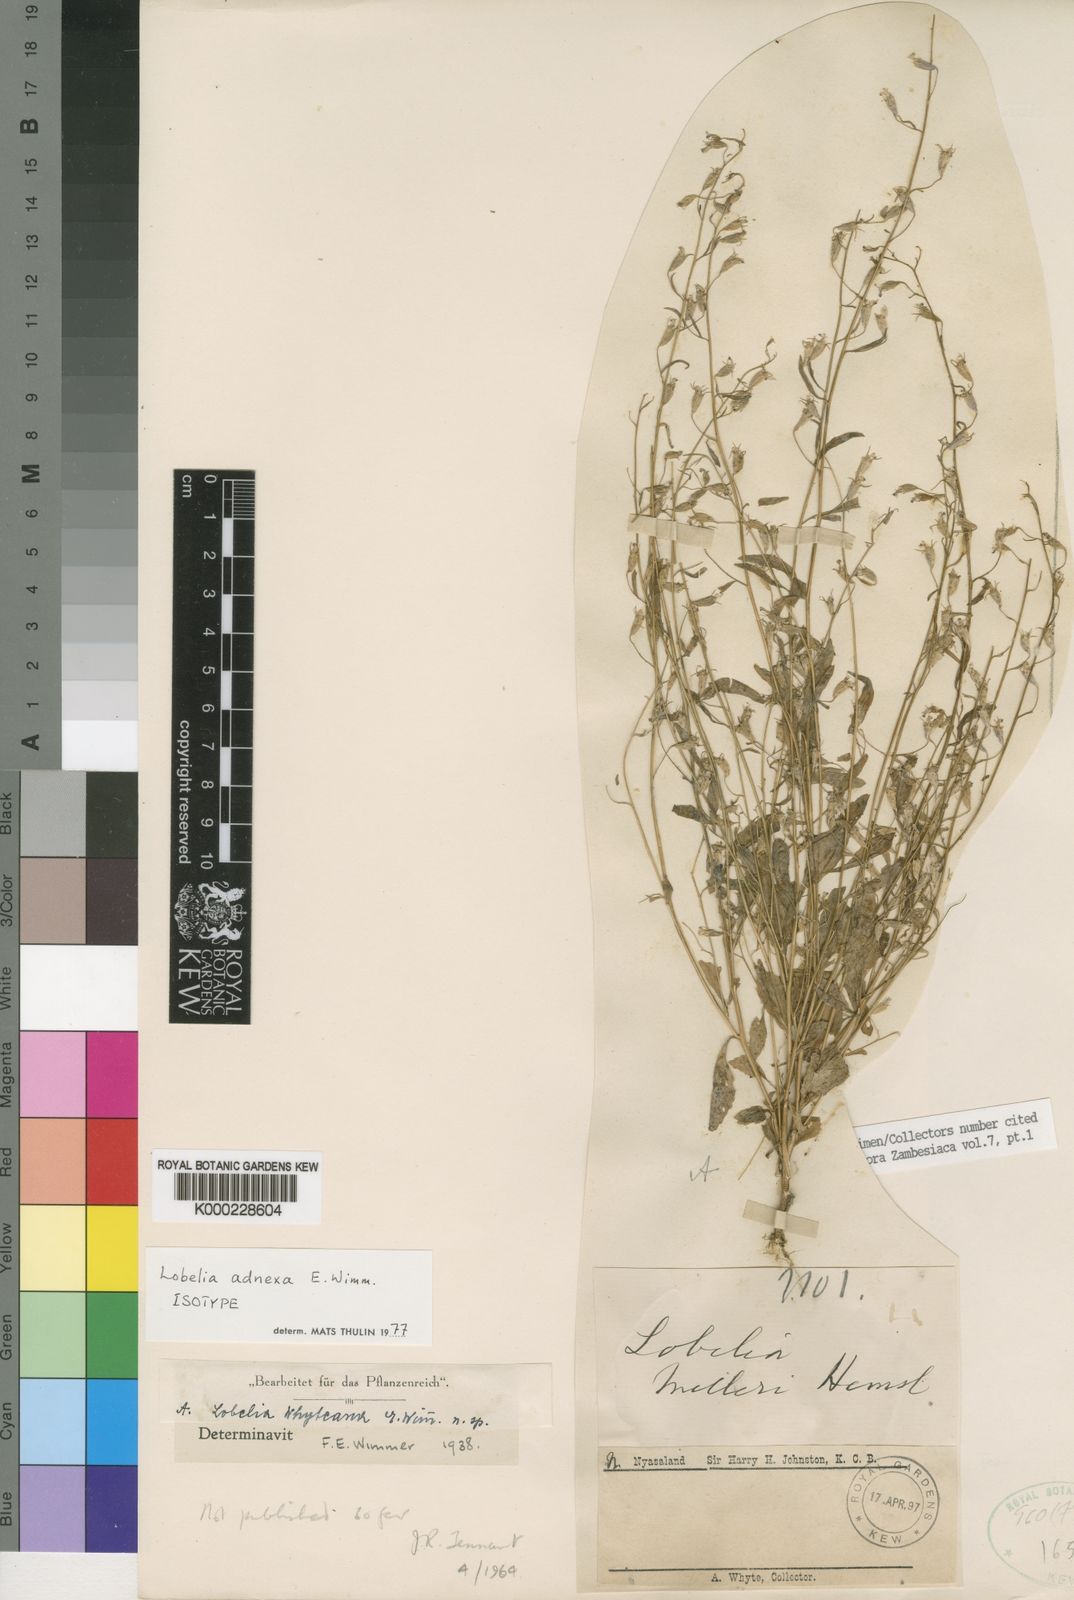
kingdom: Plantae
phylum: Tracheophyta
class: Magnoliopsida
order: Asterales
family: Campanulaceae
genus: Lobelia
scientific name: Lobelia adnexa
